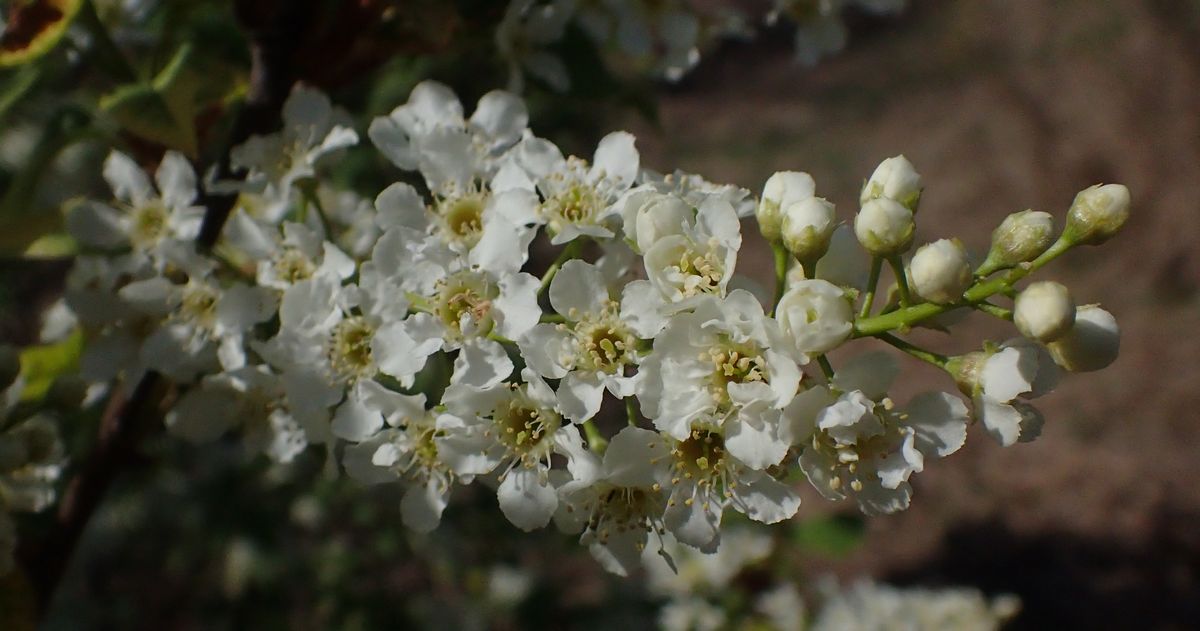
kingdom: Plantae
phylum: Tracheophyta
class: Magnoliopsida
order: Rosales
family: Rosaceae
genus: Prunus
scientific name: Prunus padus
